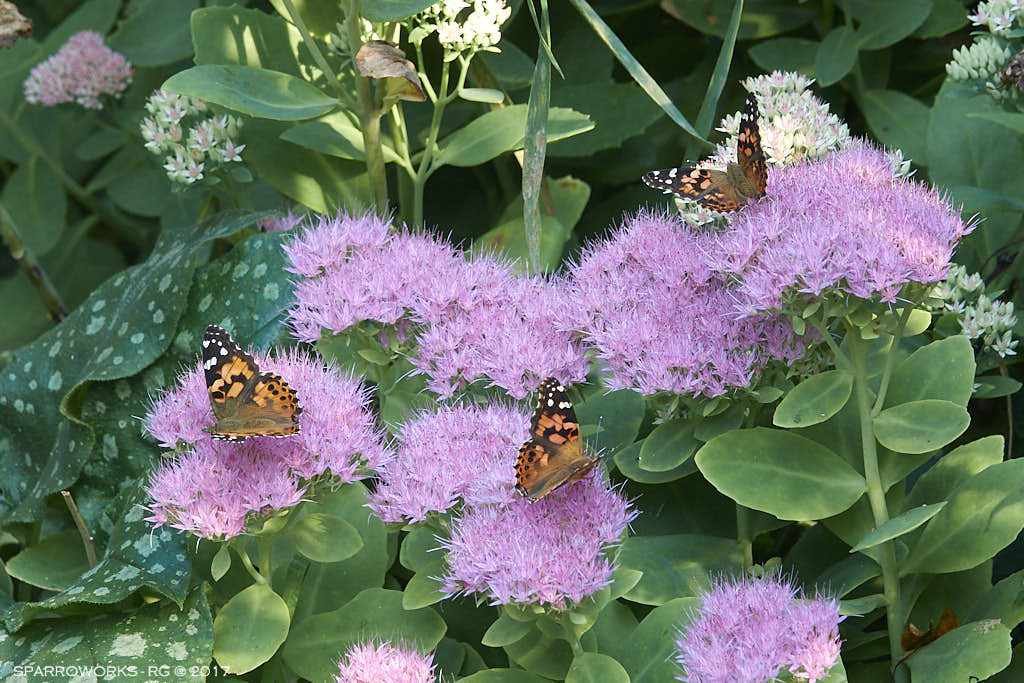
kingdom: Animalia
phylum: Arthropoda
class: Insecta
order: Lepidoptera
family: Nymphalidae
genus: Vanessa
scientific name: Vanessa cardui
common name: Painted Lady
